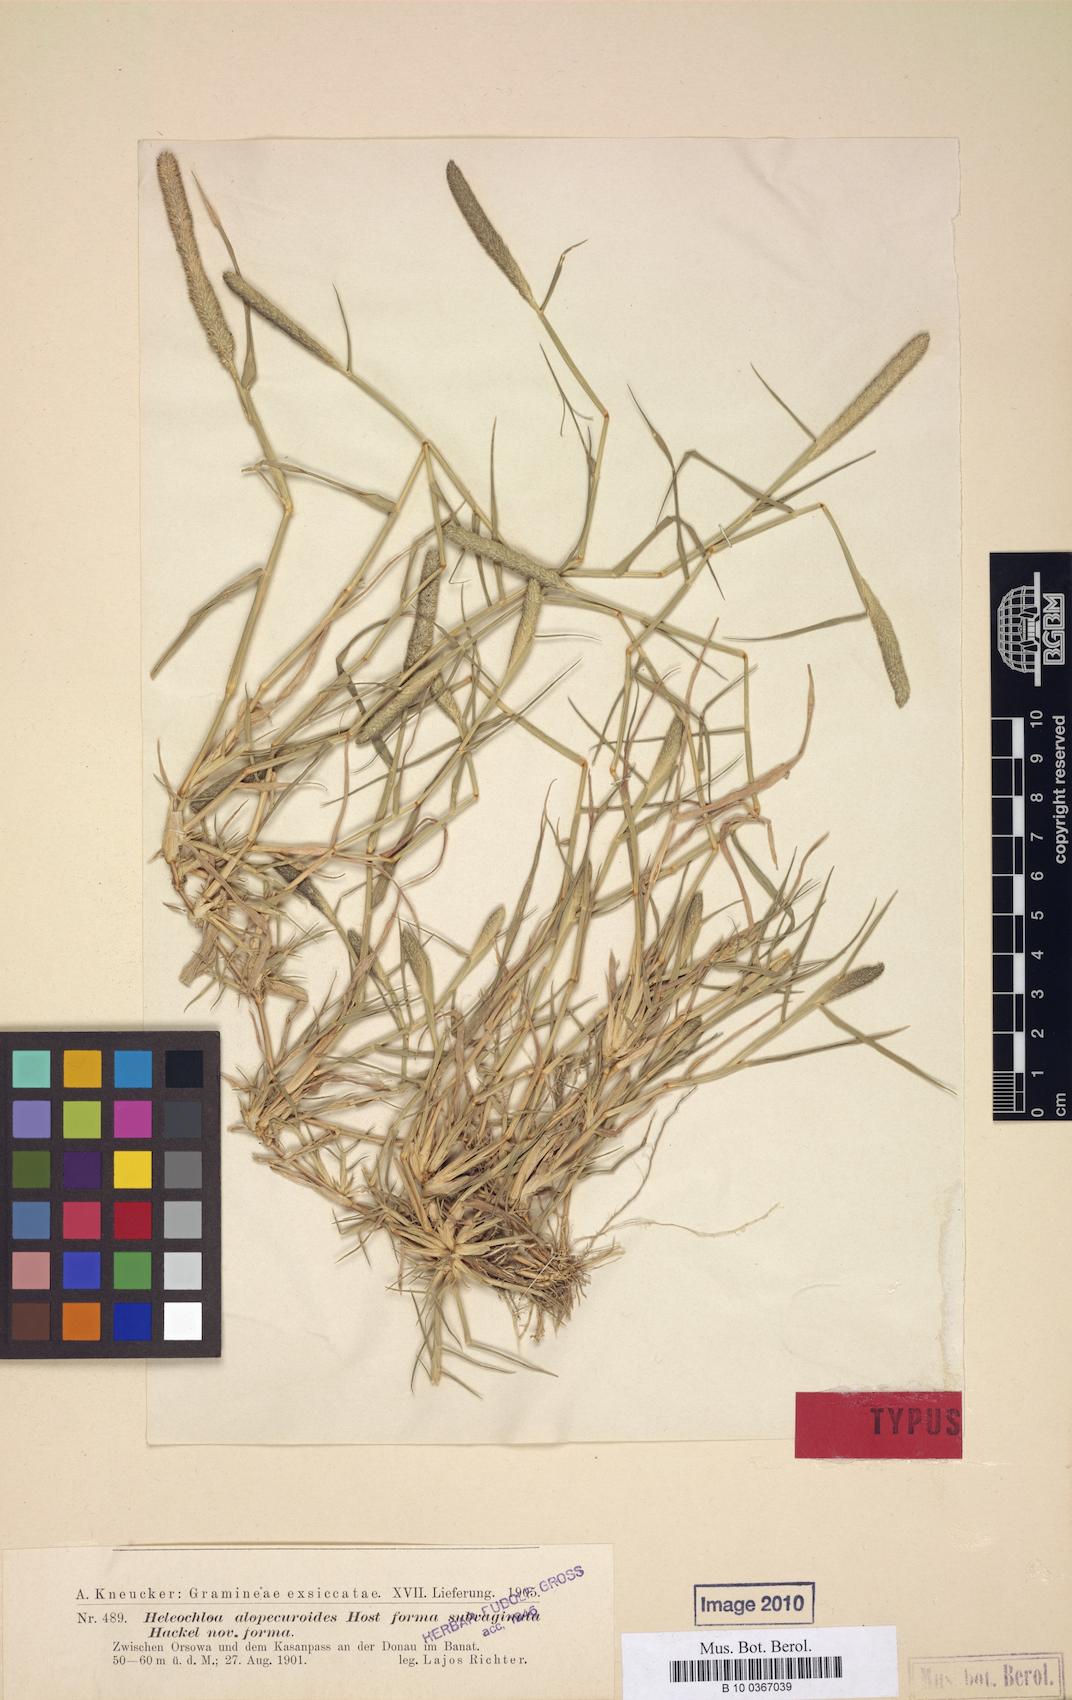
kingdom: Plantae
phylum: Tracheophyta
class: Liliopsida
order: Poales
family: Poaceae
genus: Sporobolus
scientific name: Sporobolus alopecuroides
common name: Foxtail pricklegrass
